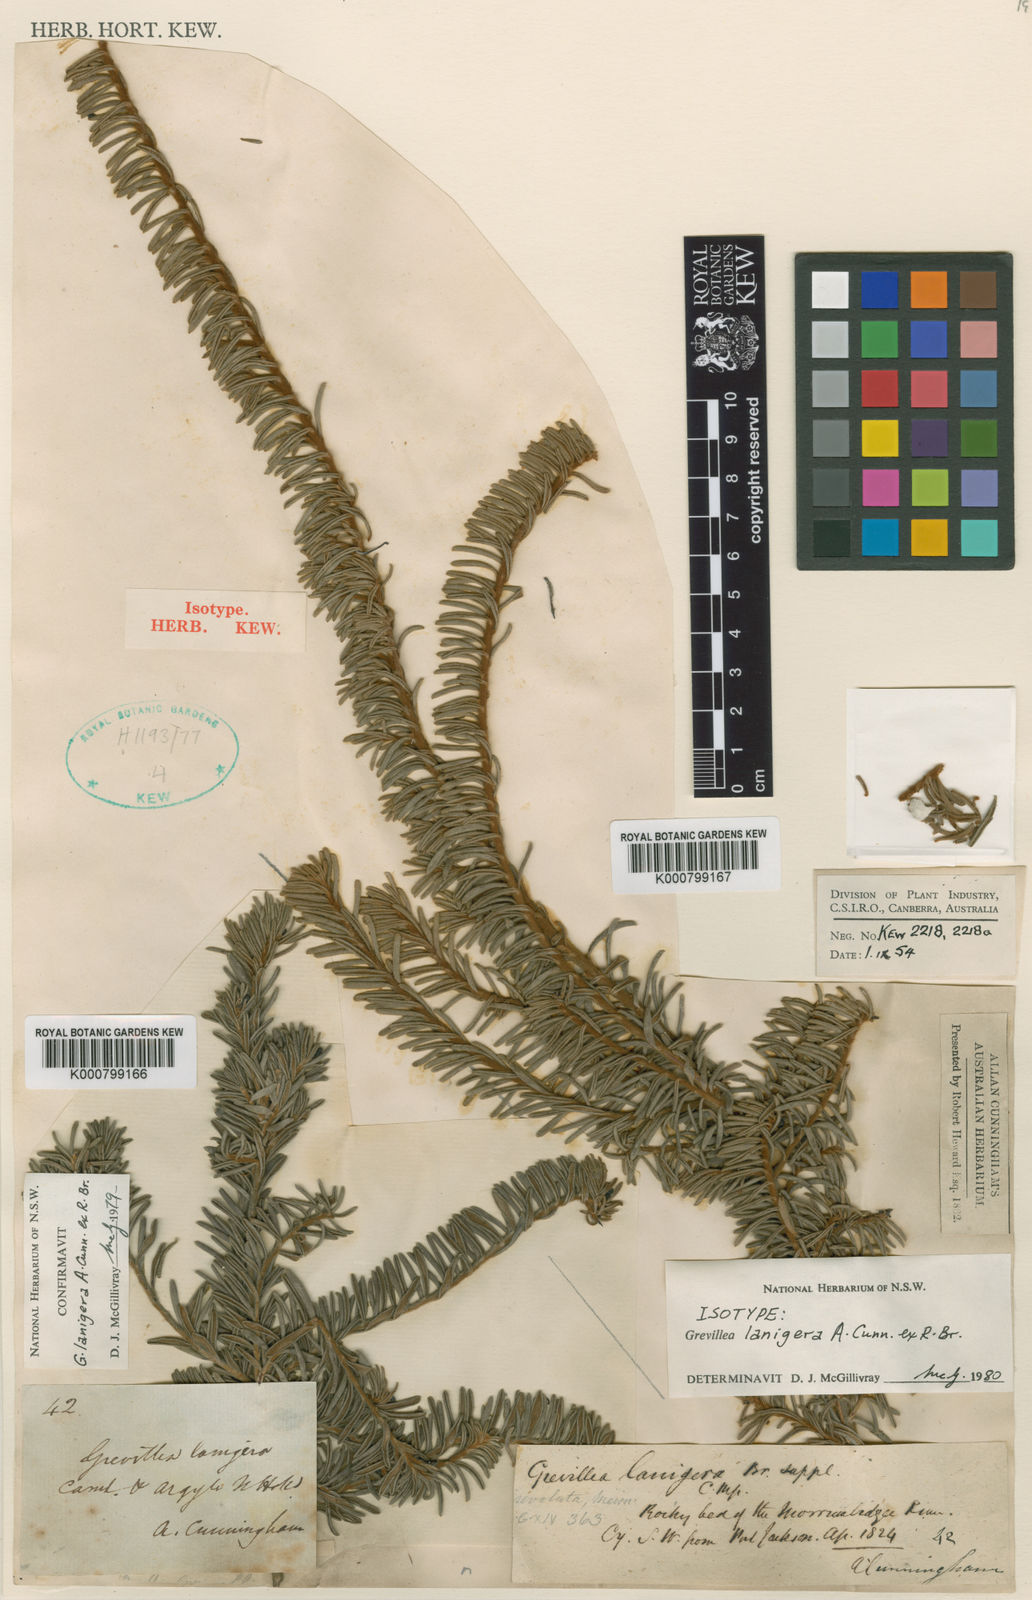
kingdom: Plantae
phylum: Tracheophyta
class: Magnoliopsida
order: Proteales
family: Proteaceae
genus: Grevillea
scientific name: Grevillea lanigera
